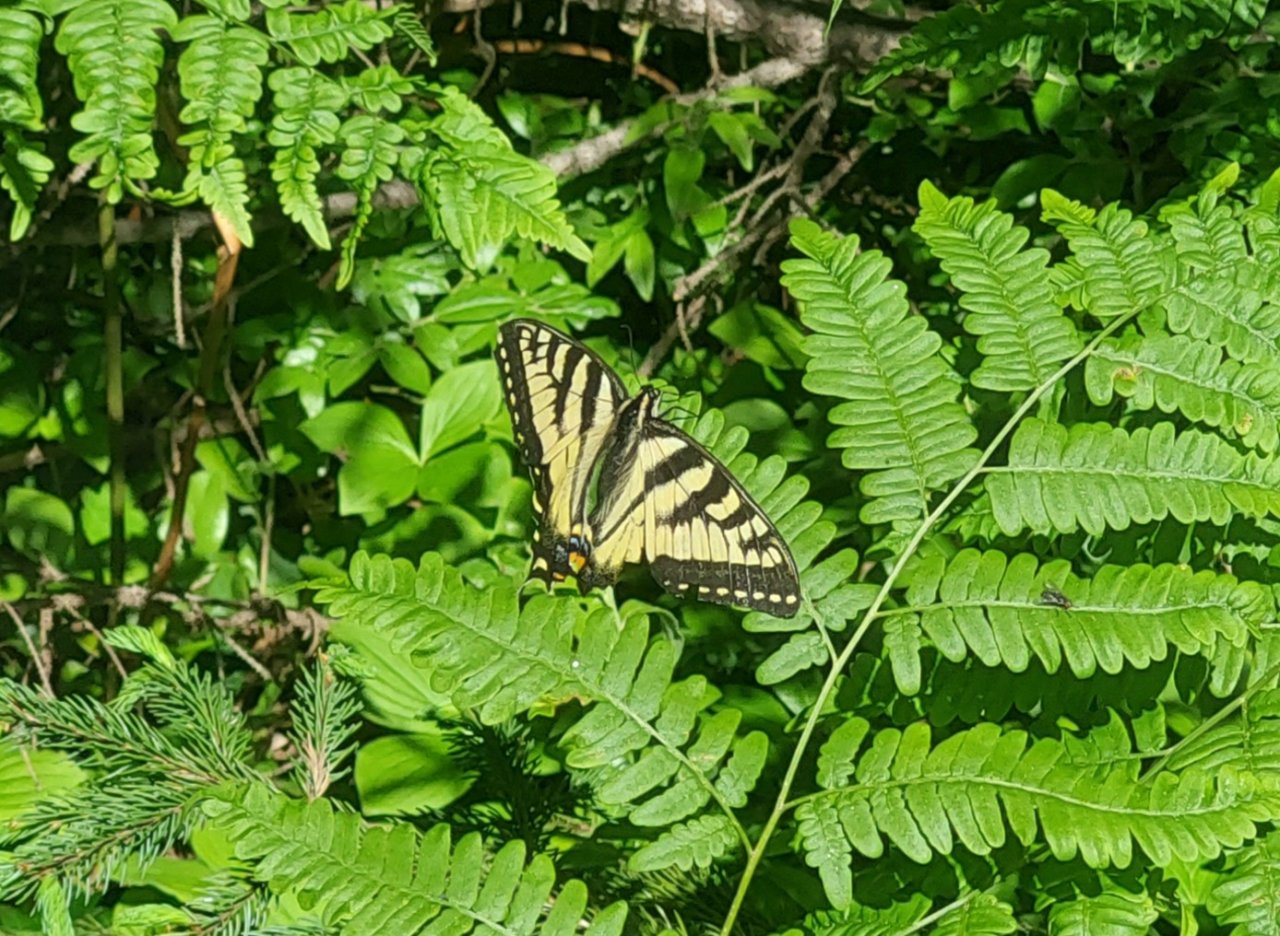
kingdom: Animalia
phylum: Arthropoda
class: Insecta
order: Lepidoptera
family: Papilionidae
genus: Pterourus
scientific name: Pterourus canadensis
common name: Canadian Tiger Swallowtail
